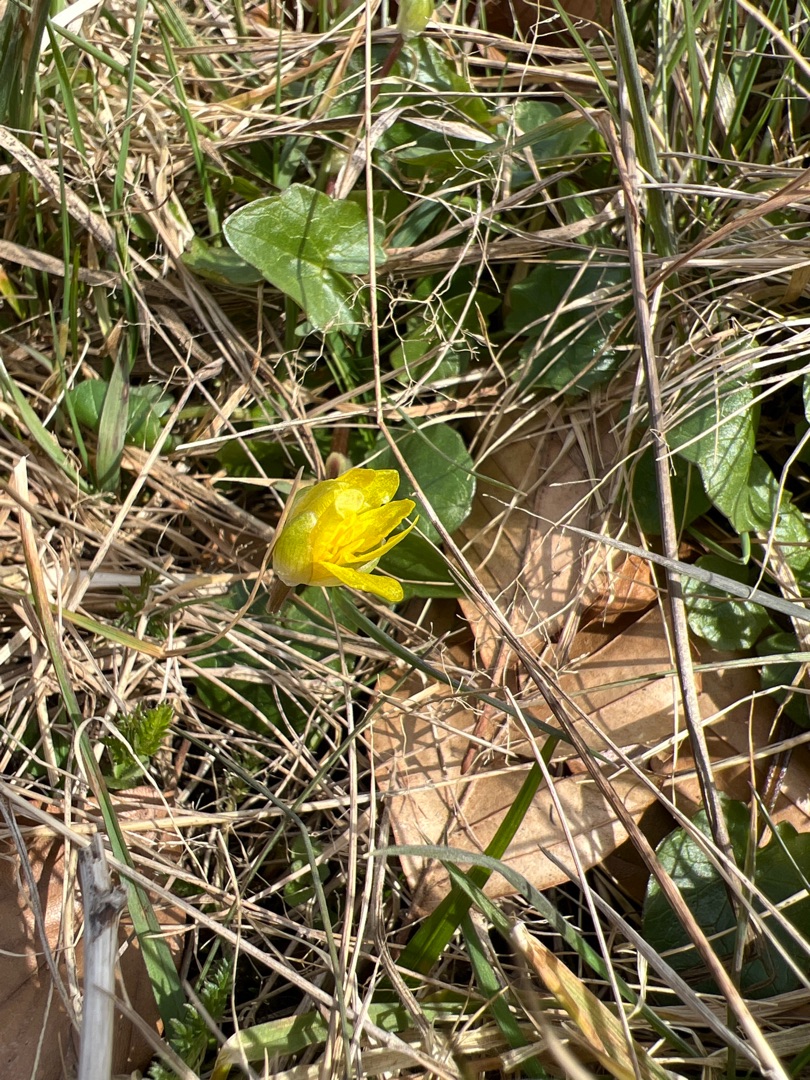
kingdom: Plantae
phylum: Tracheophyta
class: Magnoliopsida
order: Ranunculales
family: Ranunculaceae
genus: Ficaria
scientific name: Ficaria verna
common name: Almindelig vorterod
